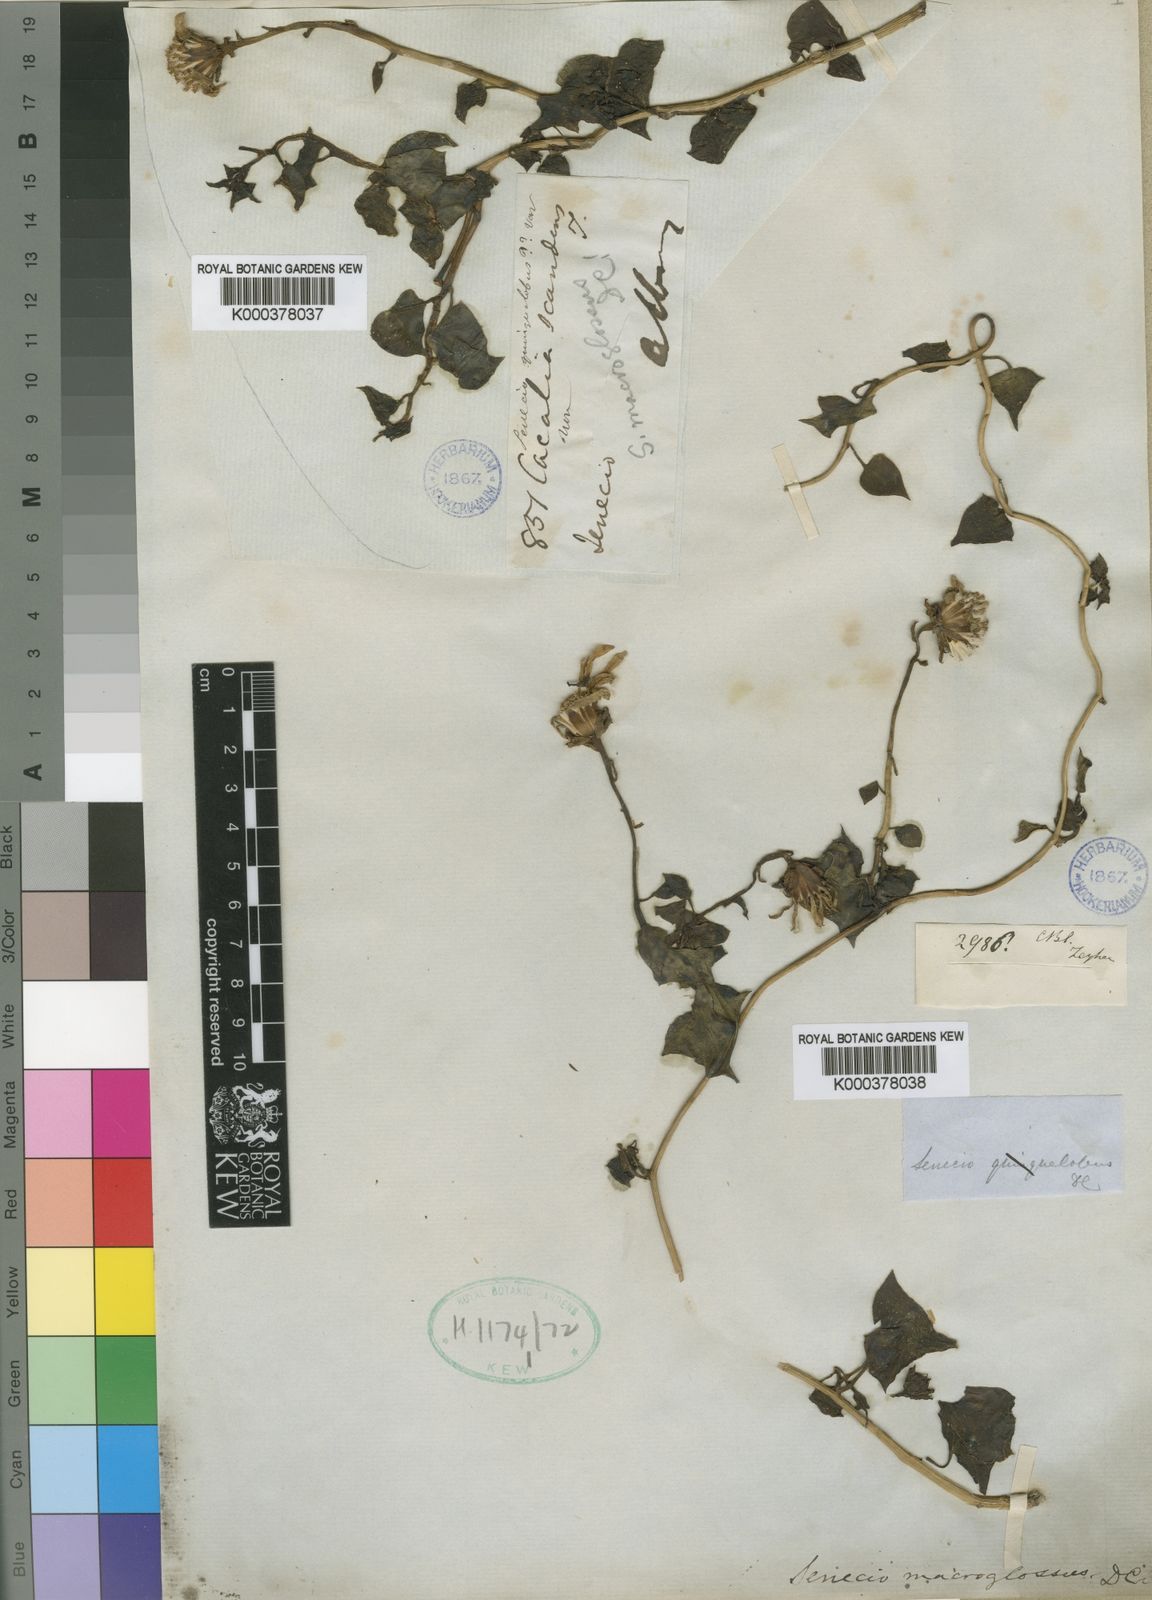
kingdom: Plantae
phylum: Tracheophyta
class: Magnoliopsida
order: Asterales
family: Asteraceae
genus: Senecio
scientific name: Senecio macroglossus
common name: Natal-ivy
